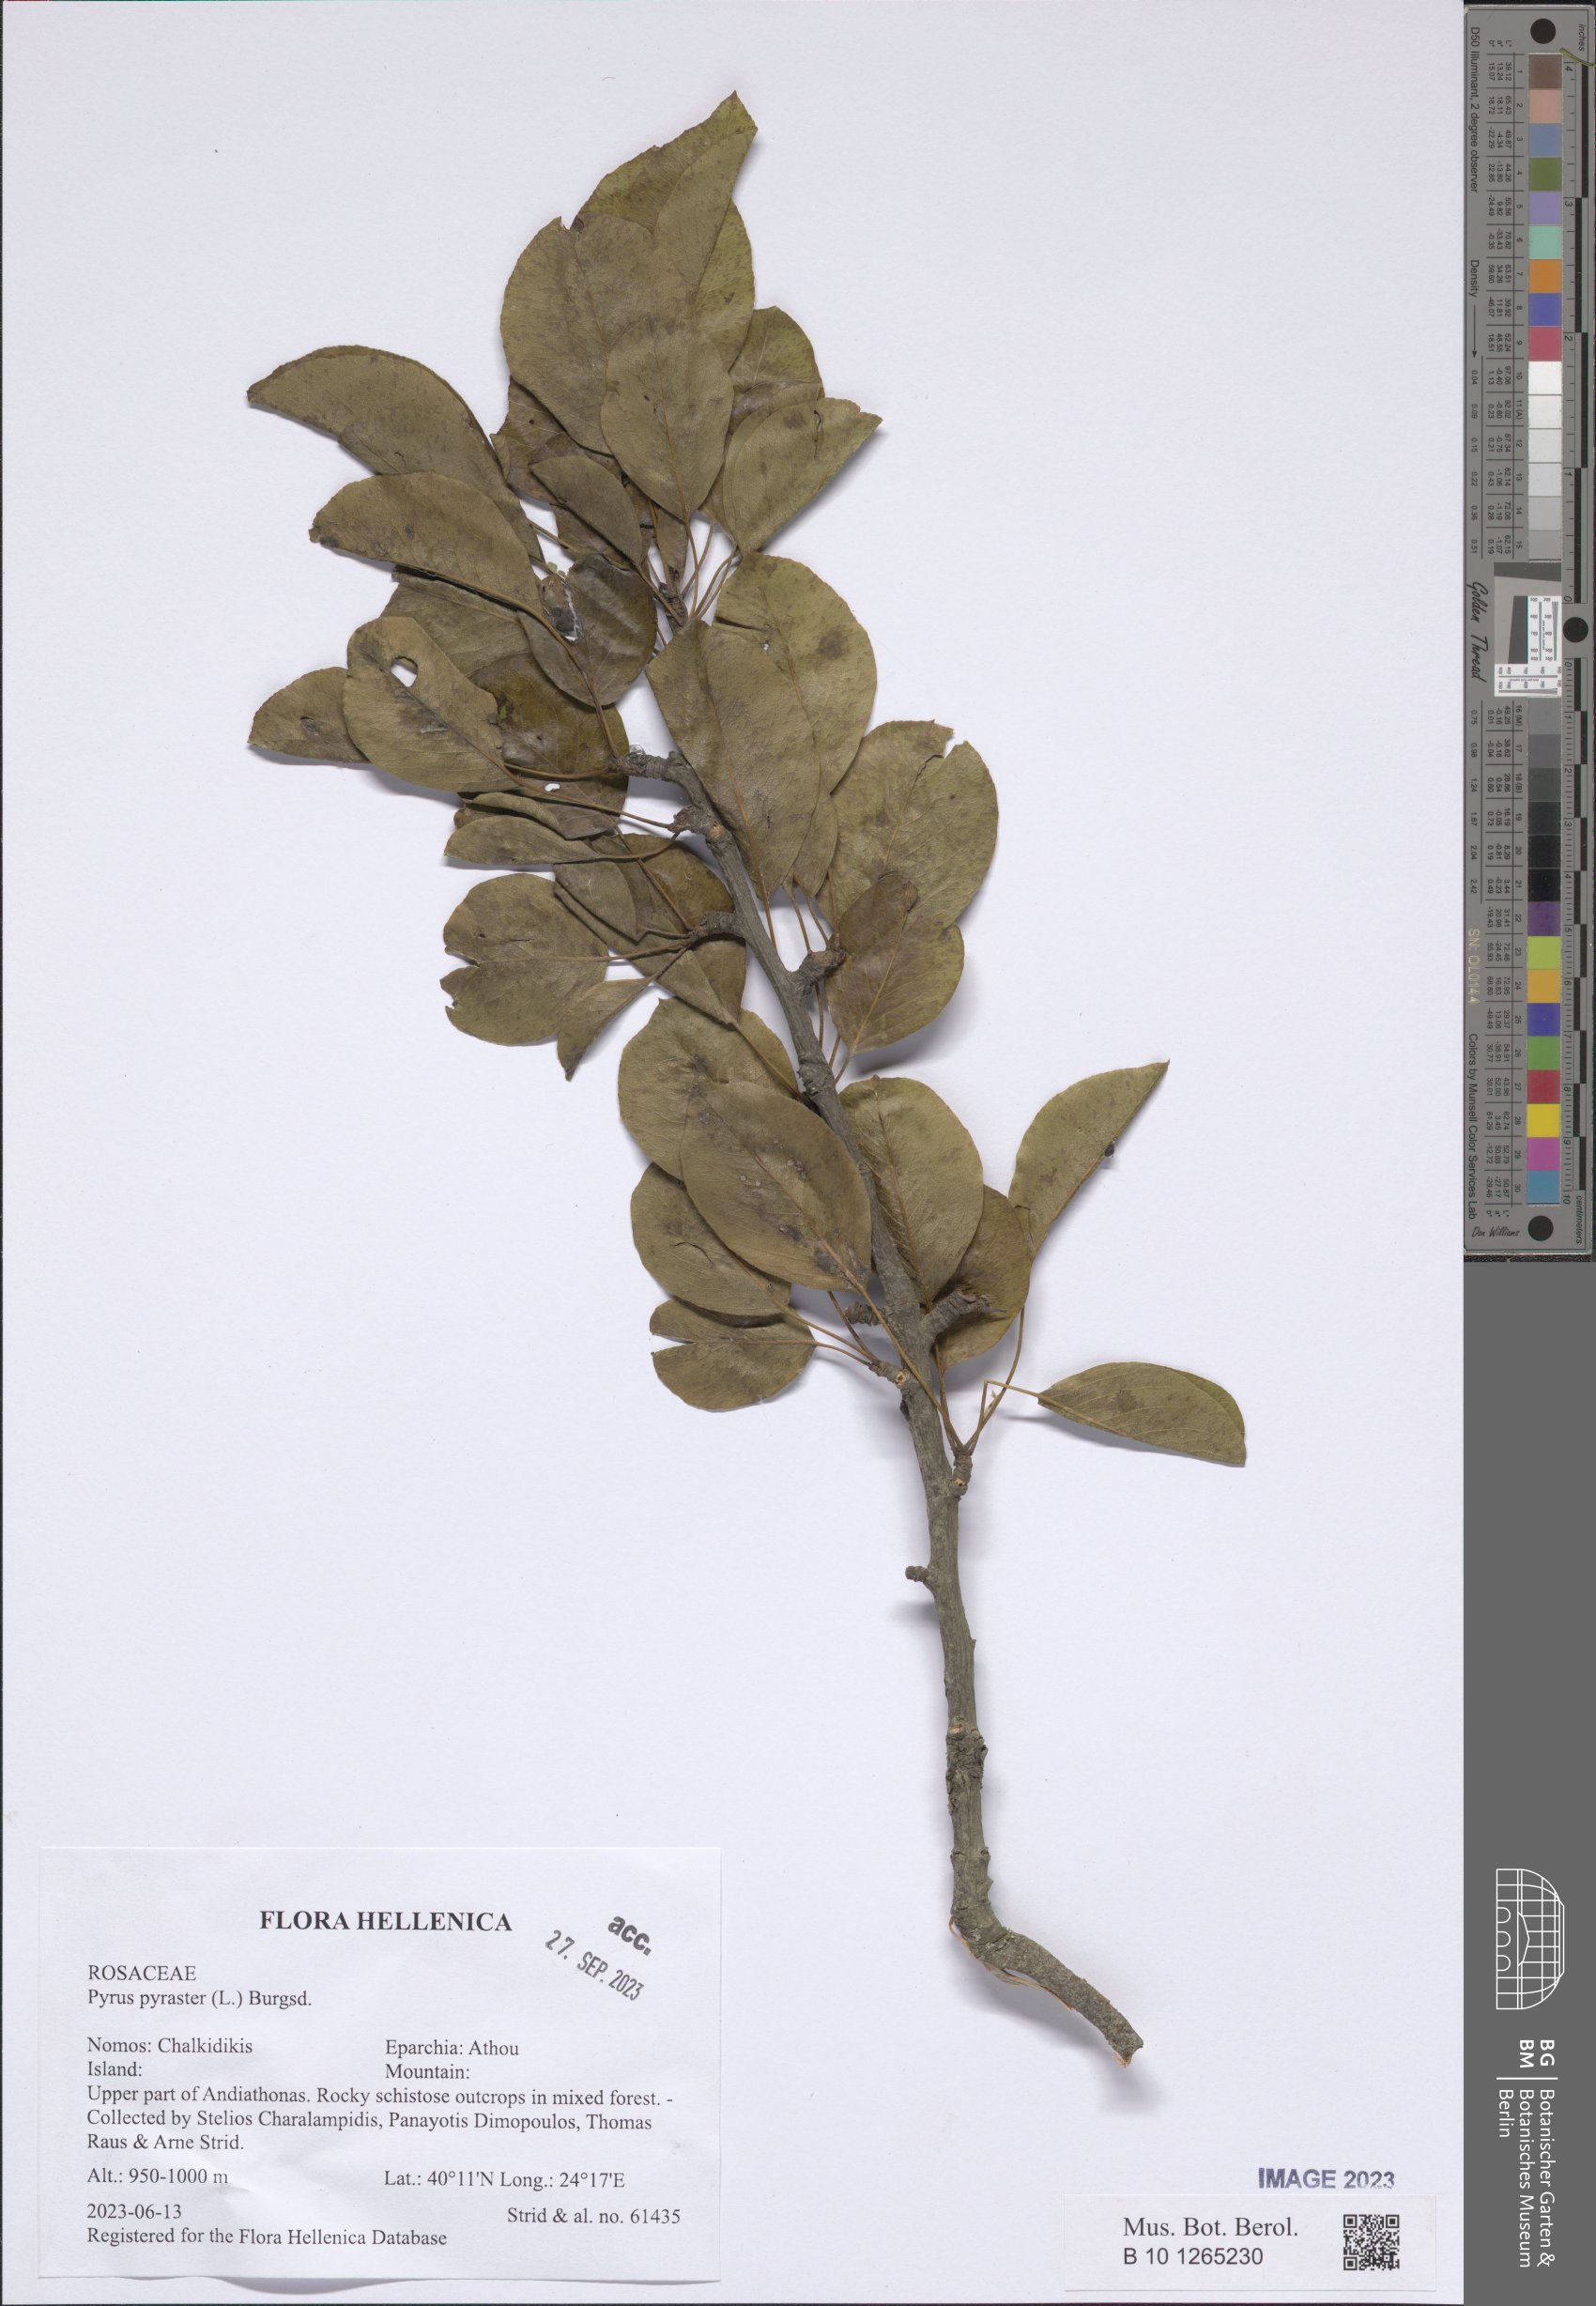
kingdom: Plantae
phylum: Tracheophyta
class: Magnoliopsida
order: Rosales
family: Rosaceae
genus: Pyrus
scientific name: Pyrus pyraster
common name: Wild pear
